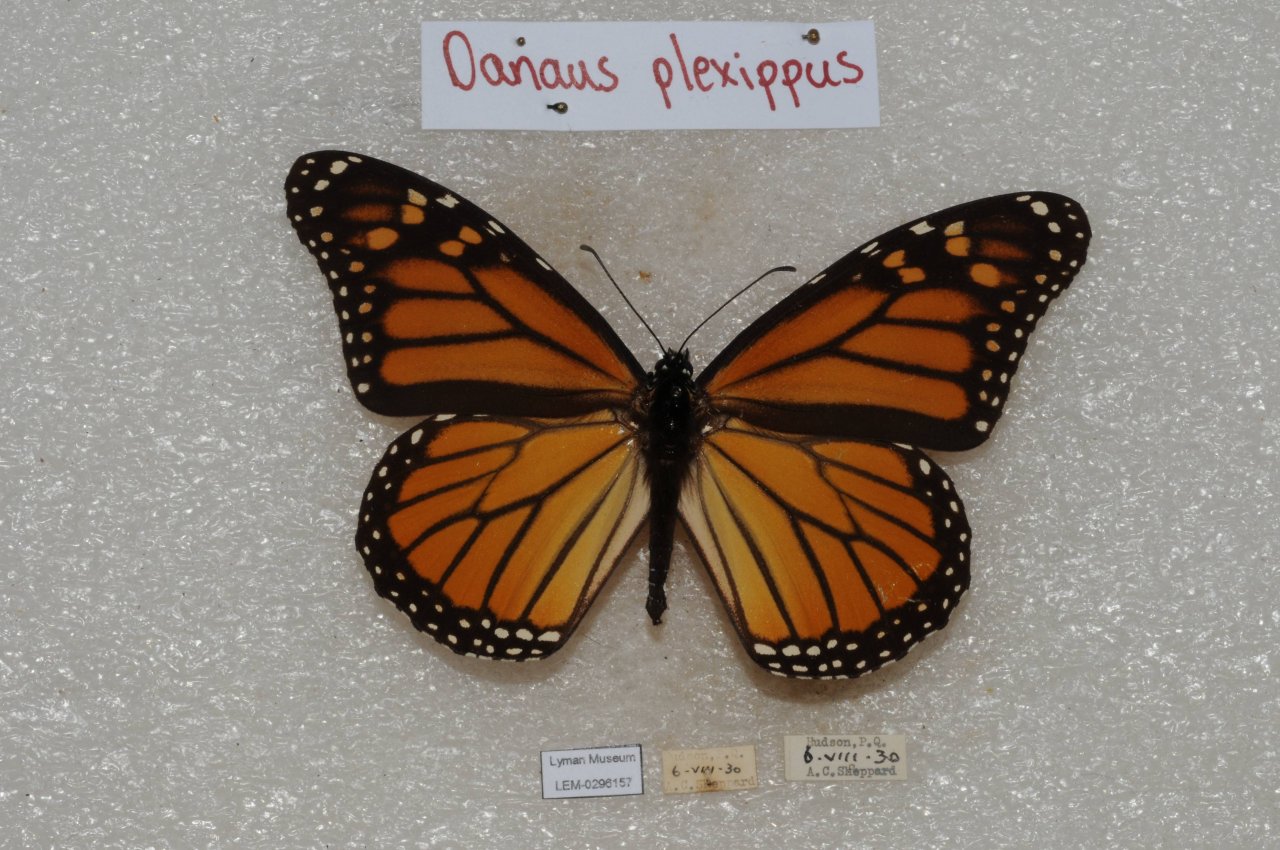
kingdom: Animalia
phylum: Arthropoda
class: Insecta
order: Lepidoptera
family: Nymphalidae
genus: Danaus
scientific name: Danaus plexippus
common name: Monarch
